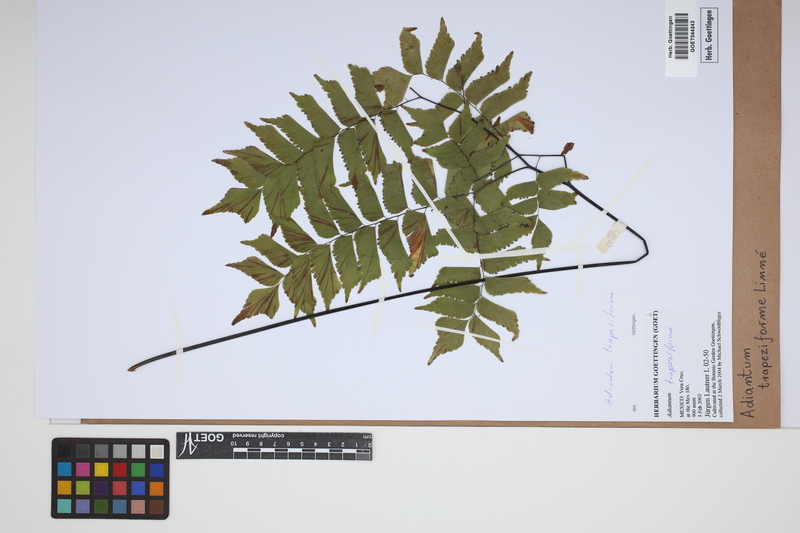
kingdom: Plantae
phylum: Tracheophyta
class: Polypodiopsida
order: Polypodiales
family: Pteridaceae
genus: Adiantum
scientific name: Adiantum trapeziforme
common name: Diamond maidenhair
